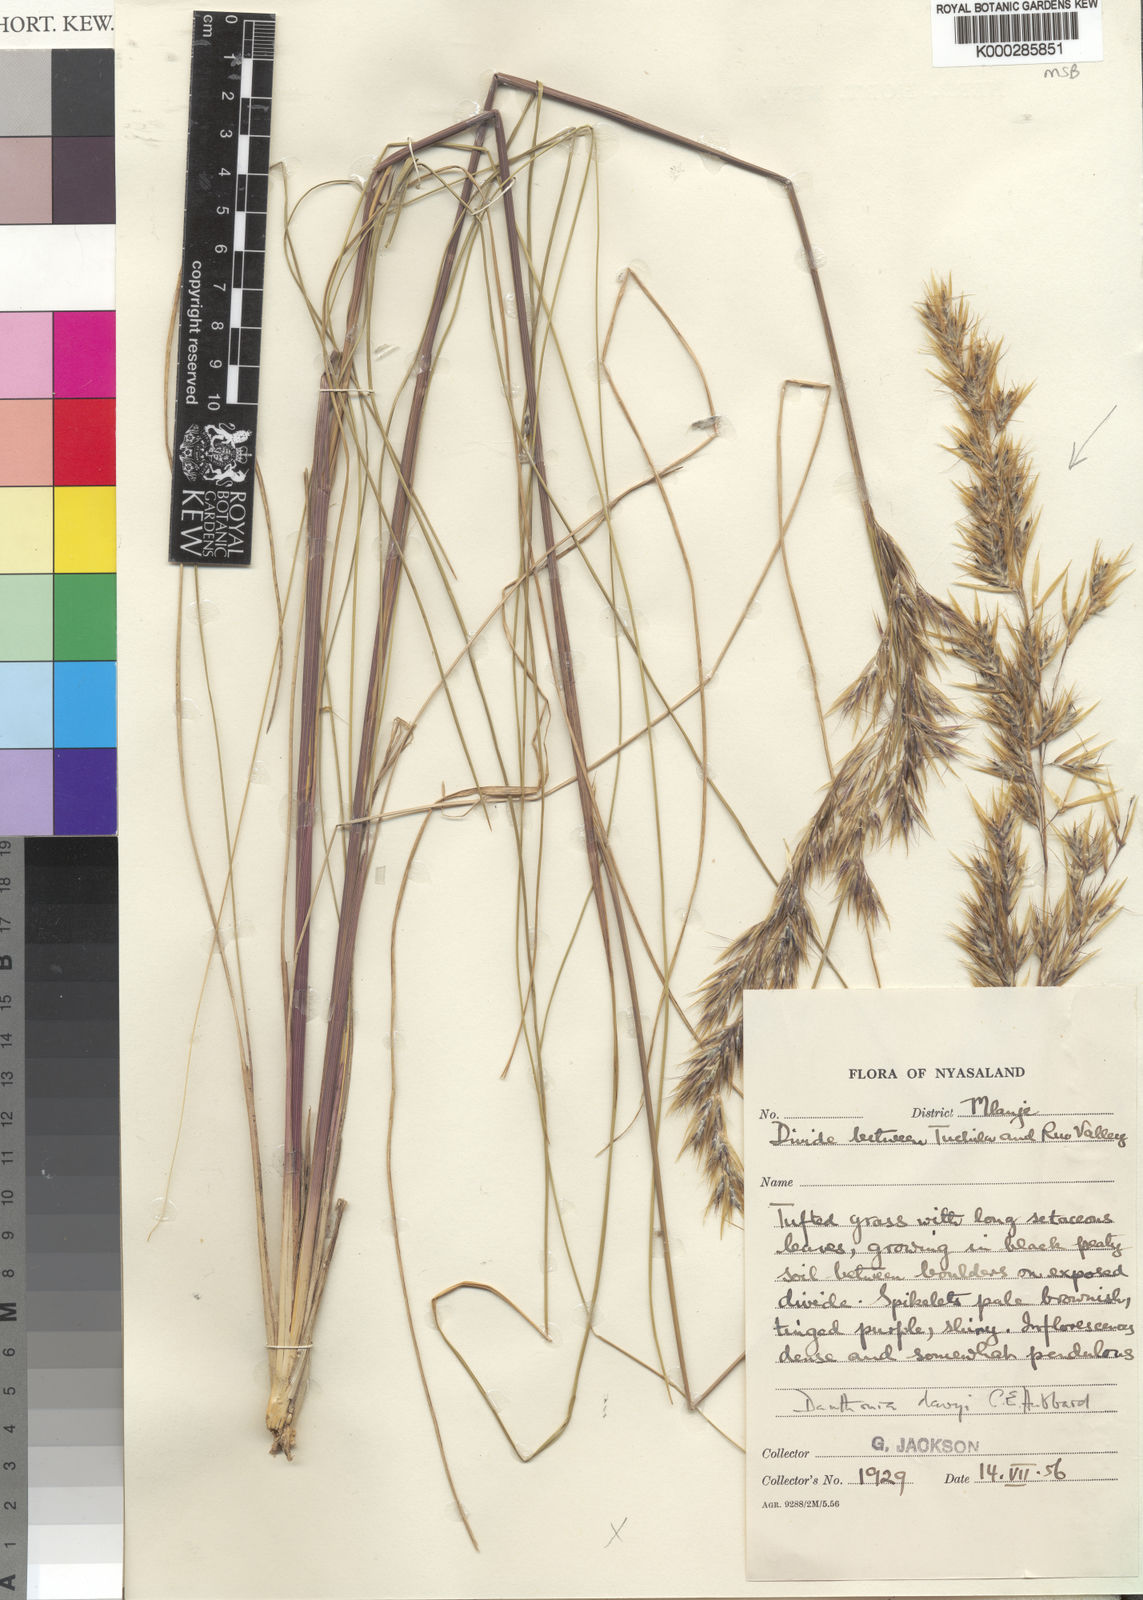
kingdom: Plantae
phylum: Tracheophyta
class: Liliopsida
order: Poales
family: Poaceae
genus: Merxmuellera
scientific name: Merxmuellera davyi
